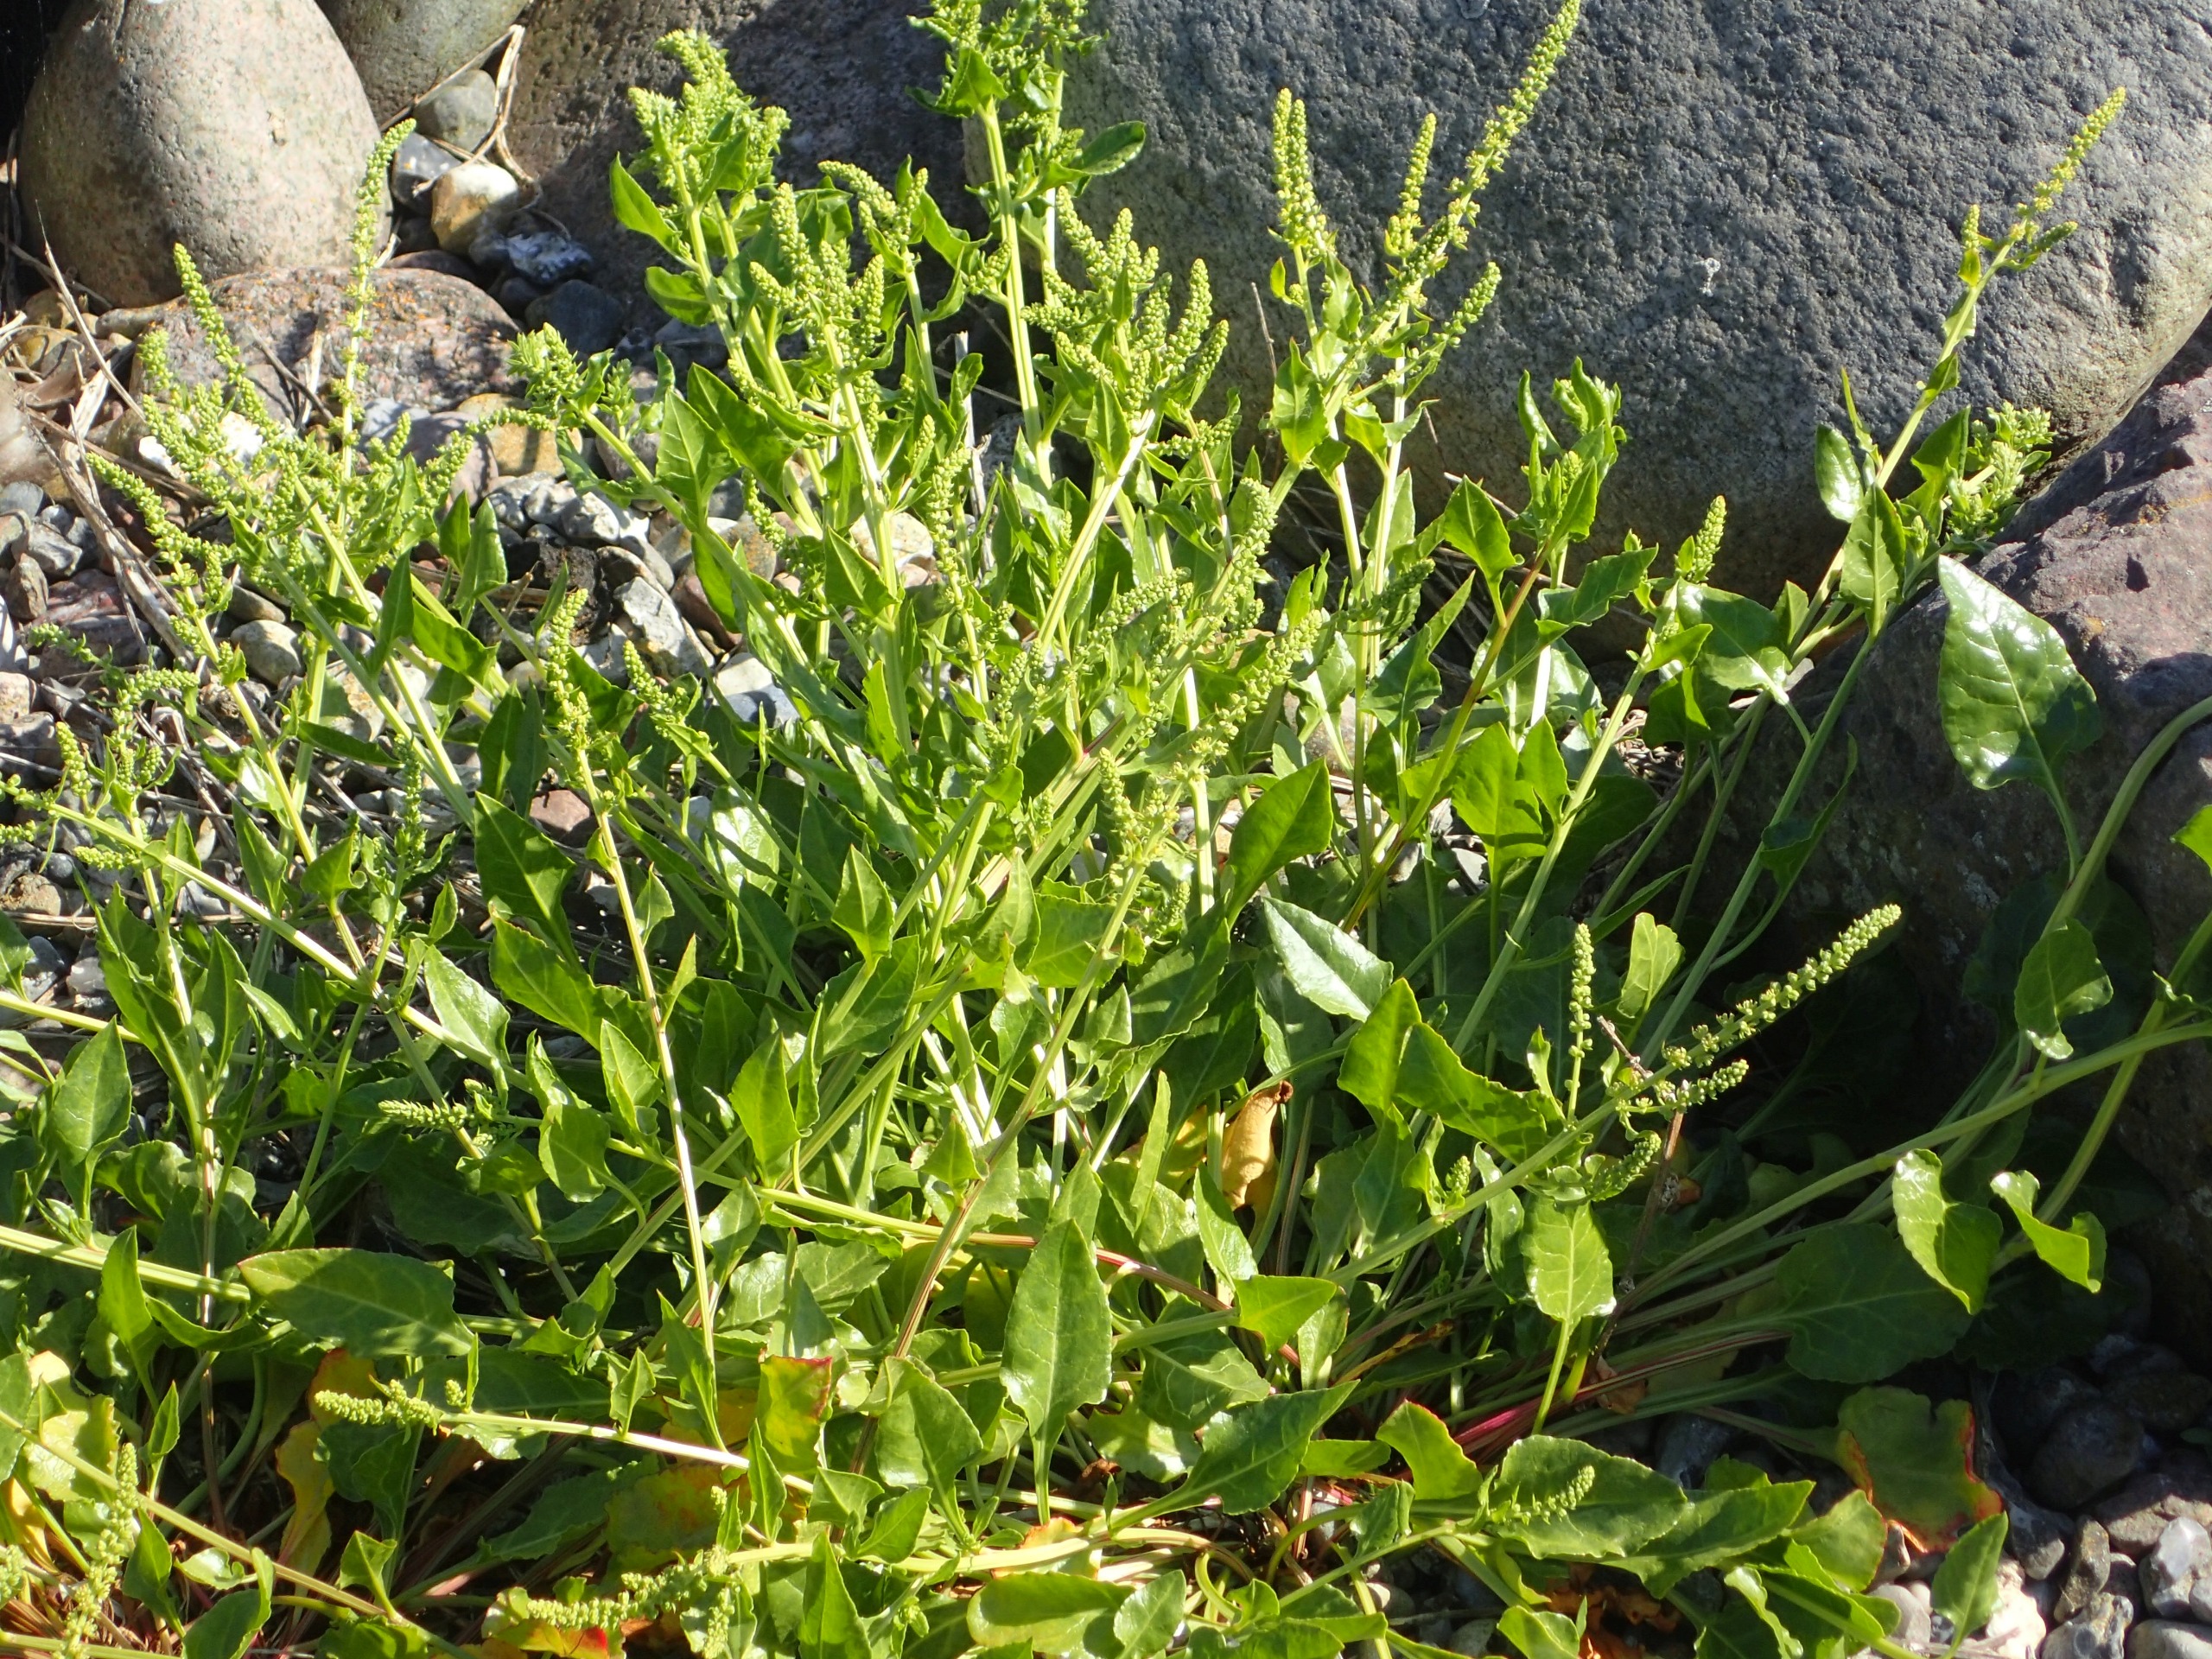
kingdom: Plantae
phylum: Tracheophyta
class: Magnoliopsida
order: Caryophyllales
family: Amaranthaceae
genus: Beta
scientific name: Beta maritima
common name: Strand-bede
